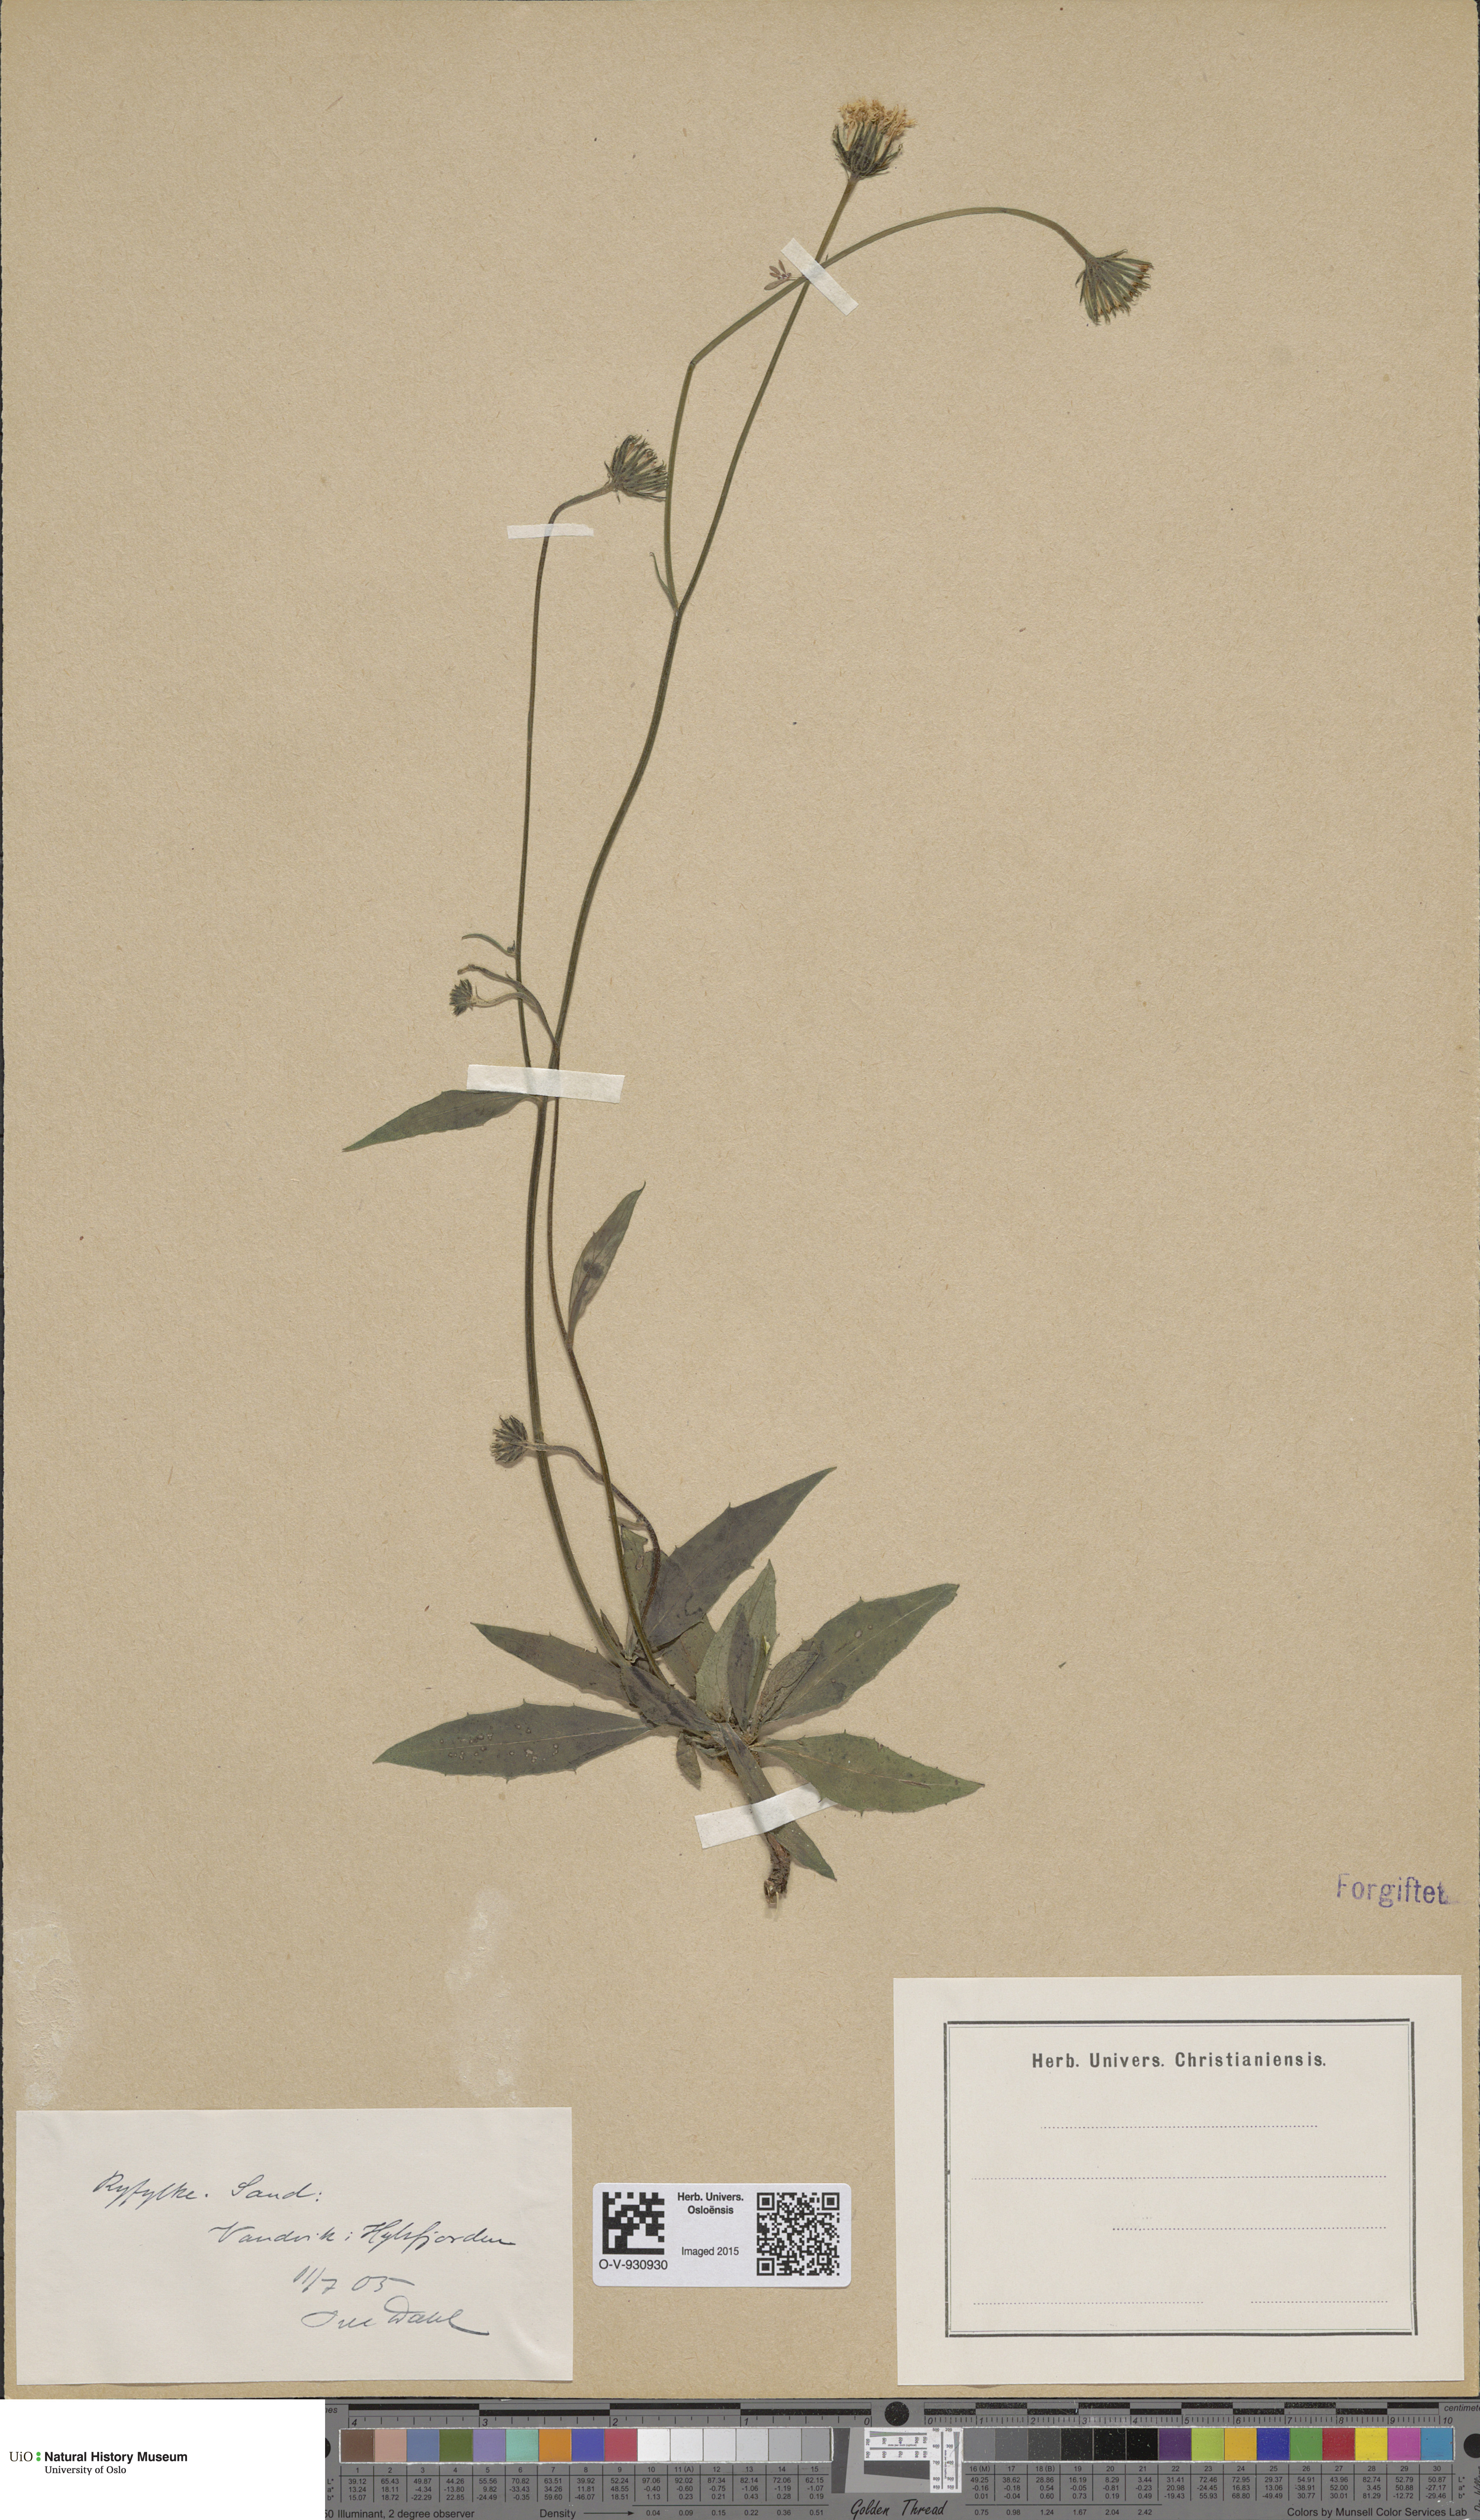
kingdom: Plantae
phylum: Tracheophyta
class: Magnoliopsida
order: Asterales
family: Asteraceae
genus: Hieracium
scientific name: Hieracium saxifragum
